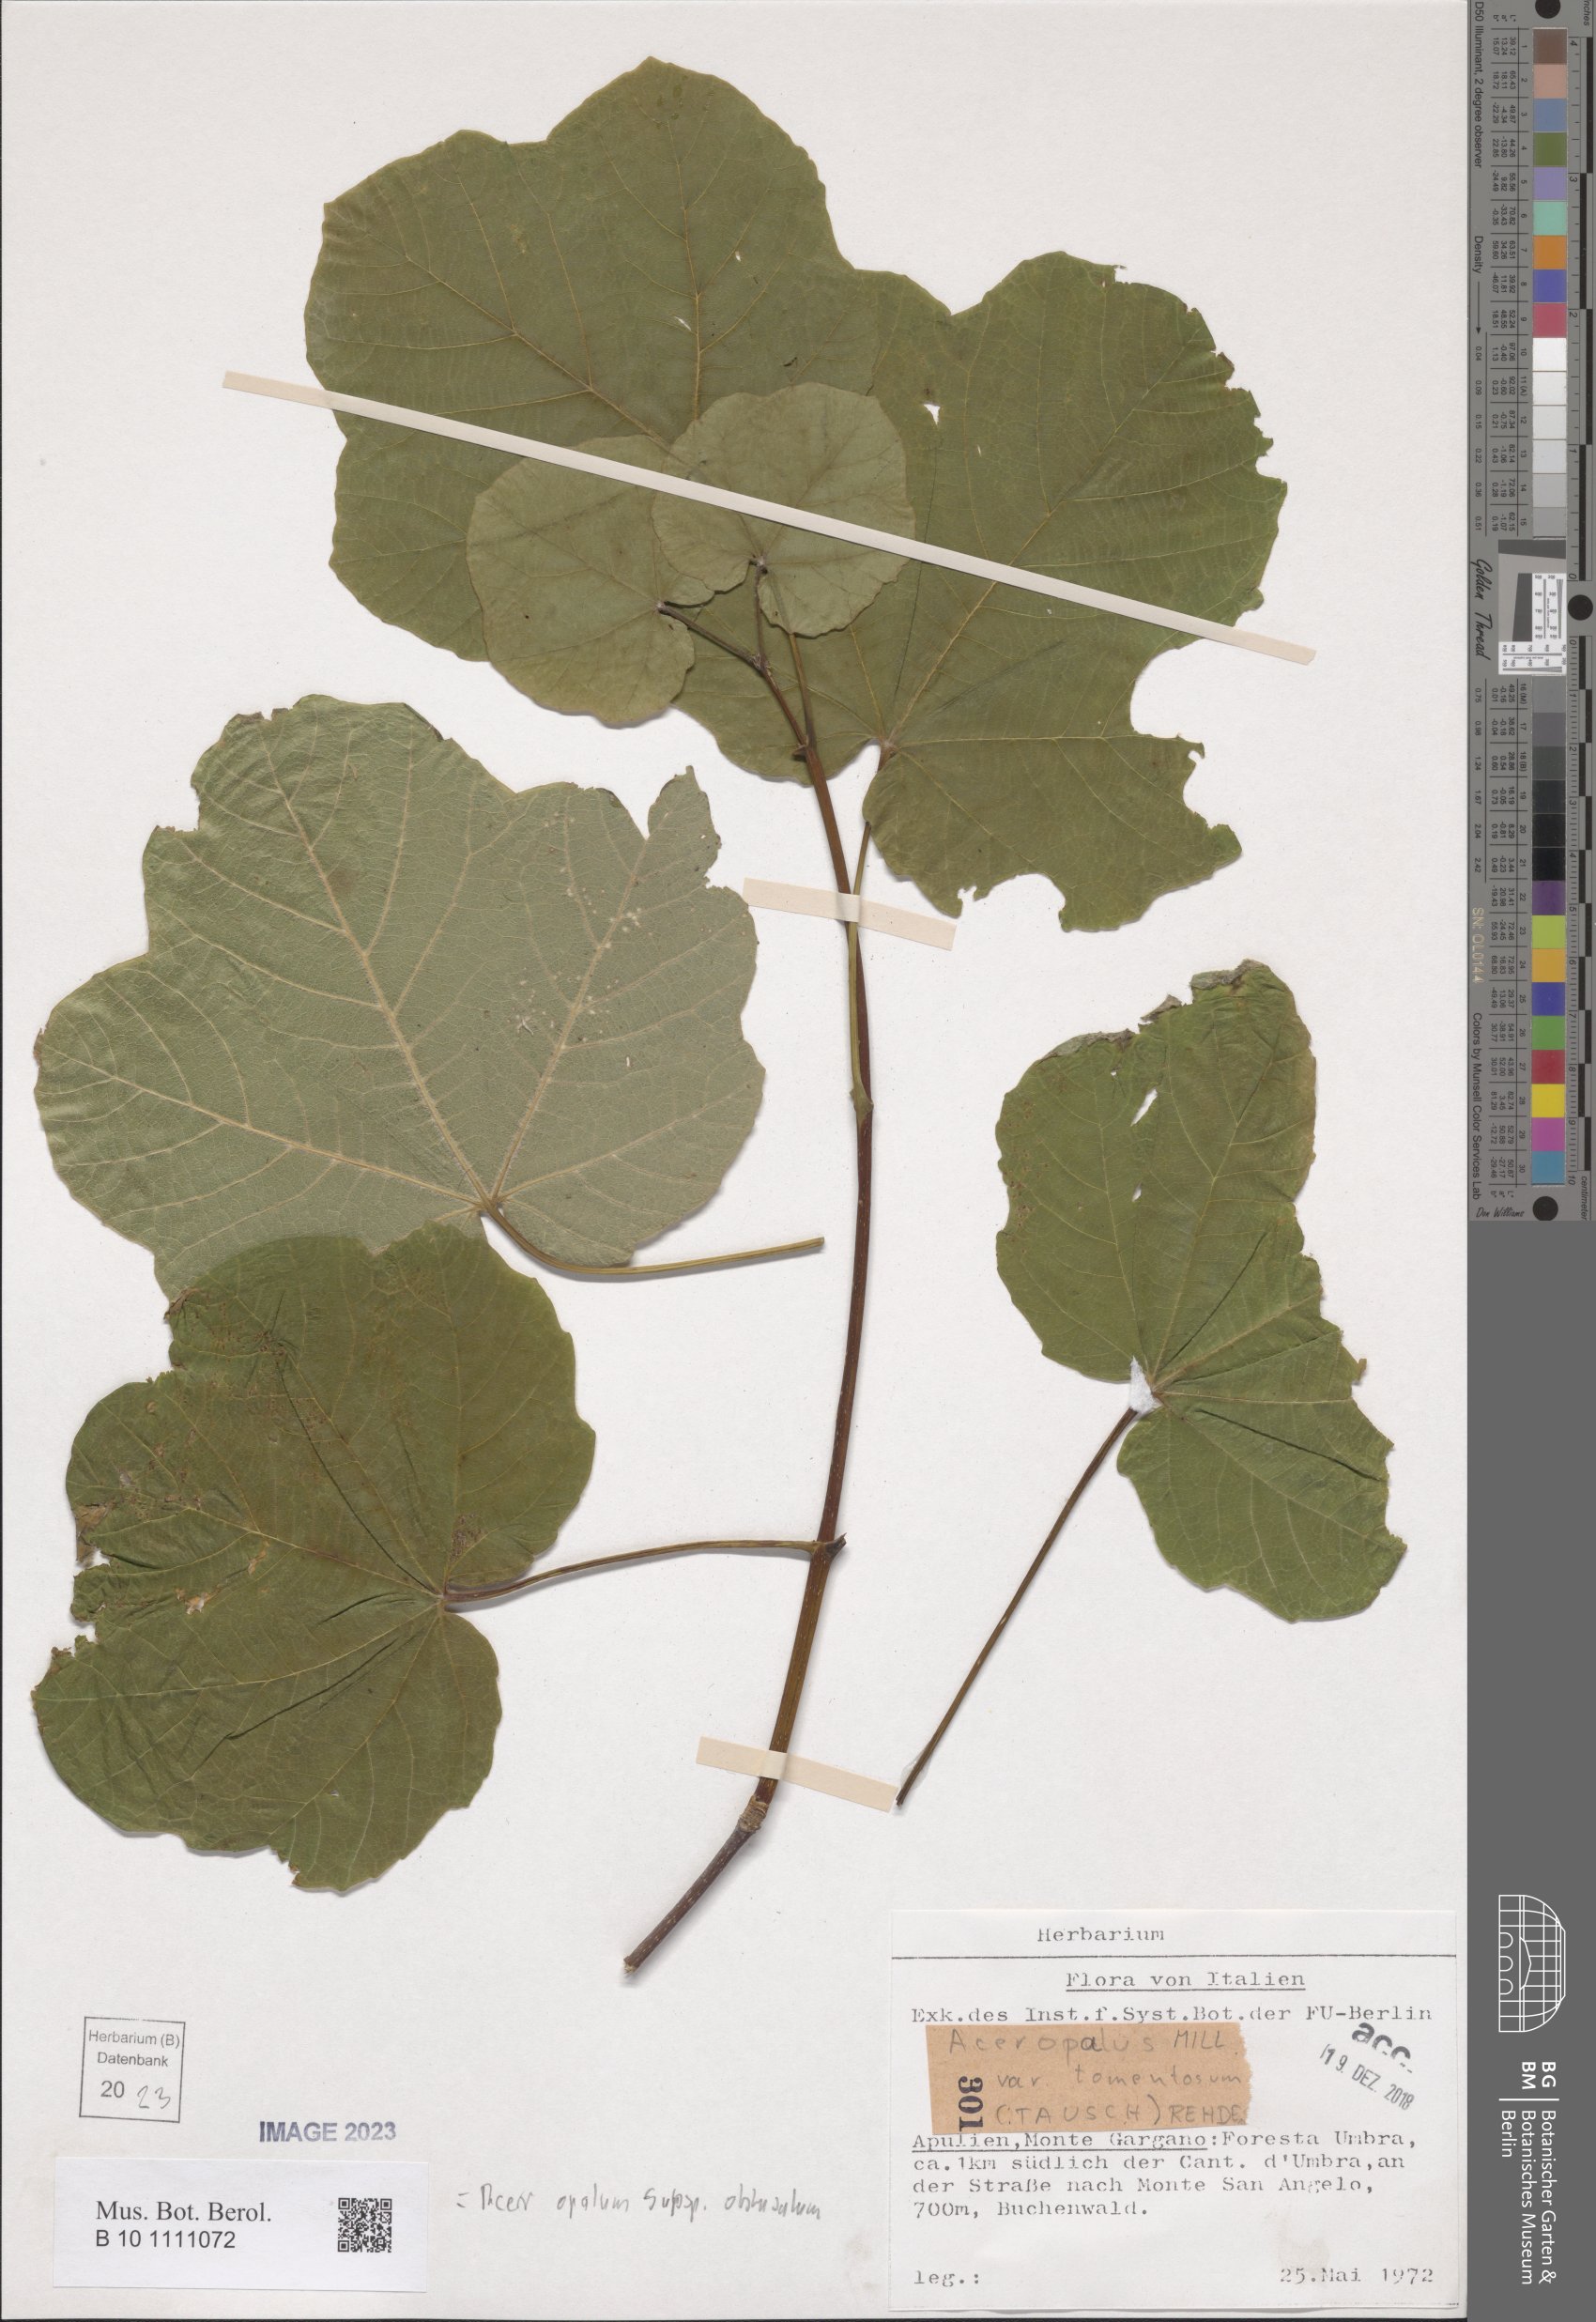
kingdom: Plantae
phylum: Tracheophyta
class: Magnoliopsida
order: Sapindales
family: Sapindaceae
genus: Acer
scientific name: Acer obtusatum
